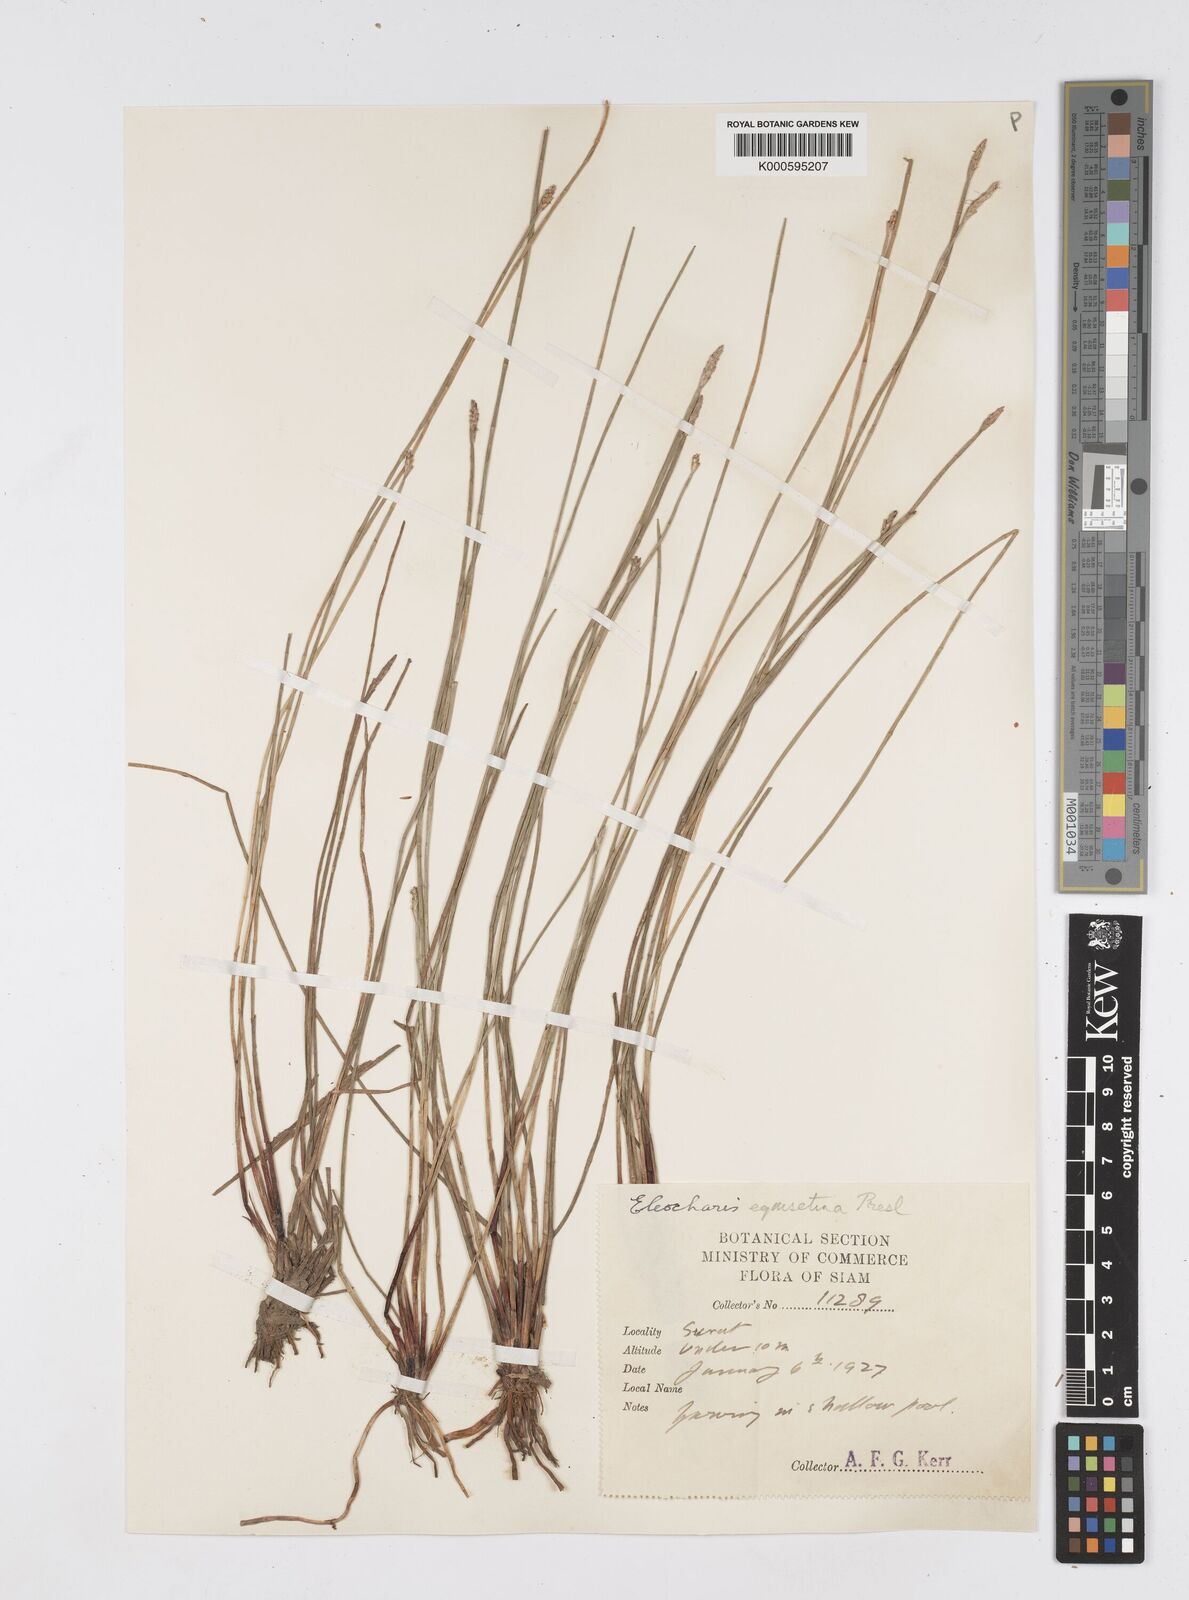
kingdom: Plantae
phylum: Tracheophyta
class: Liliopsida
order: Poales
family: Cyperaceae
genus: Eleocharis
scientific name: Eleocharis dulcis
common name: Chinese water chestnut
